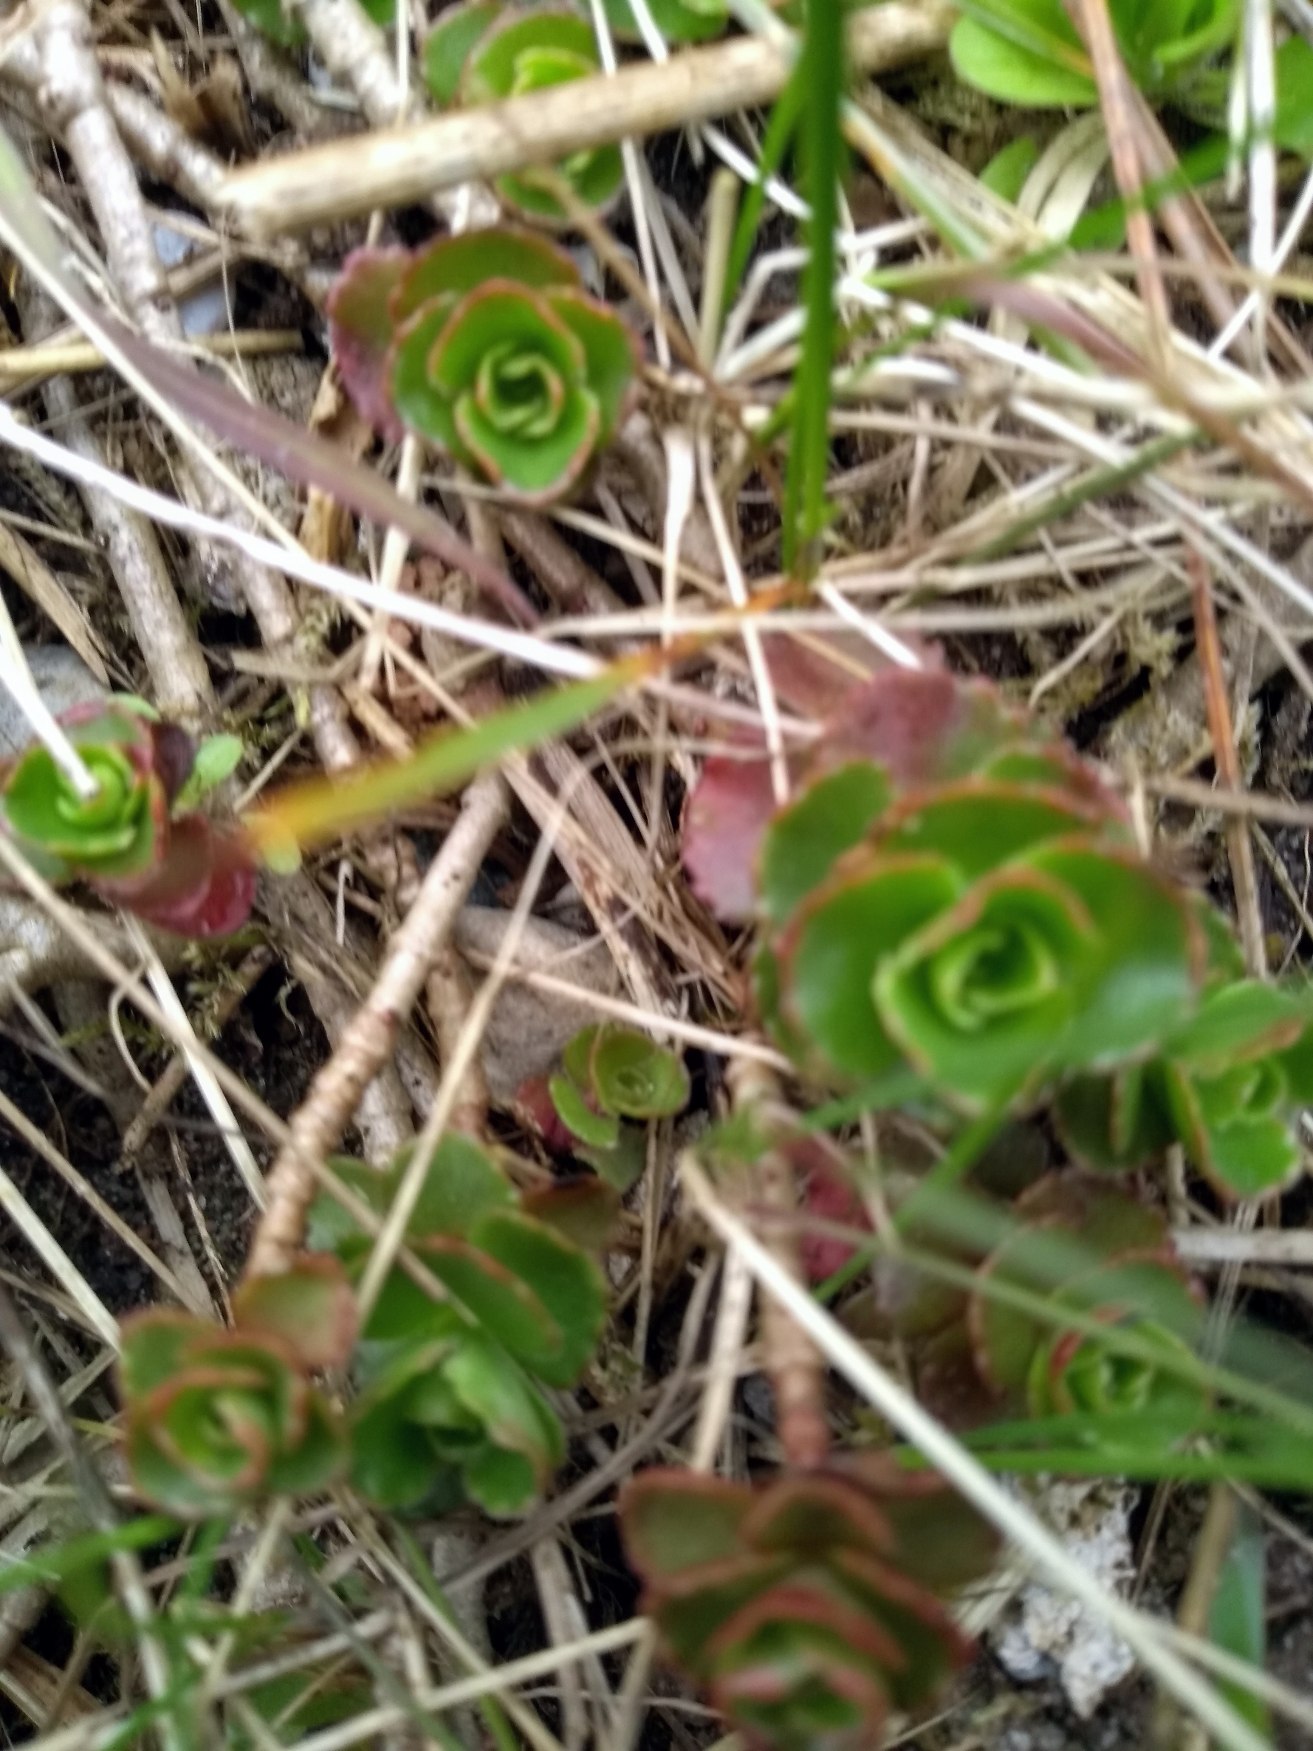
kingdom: Plantae
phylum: Tracheophyta
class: Magnoliopsida
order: Saxifragales
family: Crassulaceae
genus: Phedimus
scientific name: Phedimus spurius
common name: Rød stenurt
